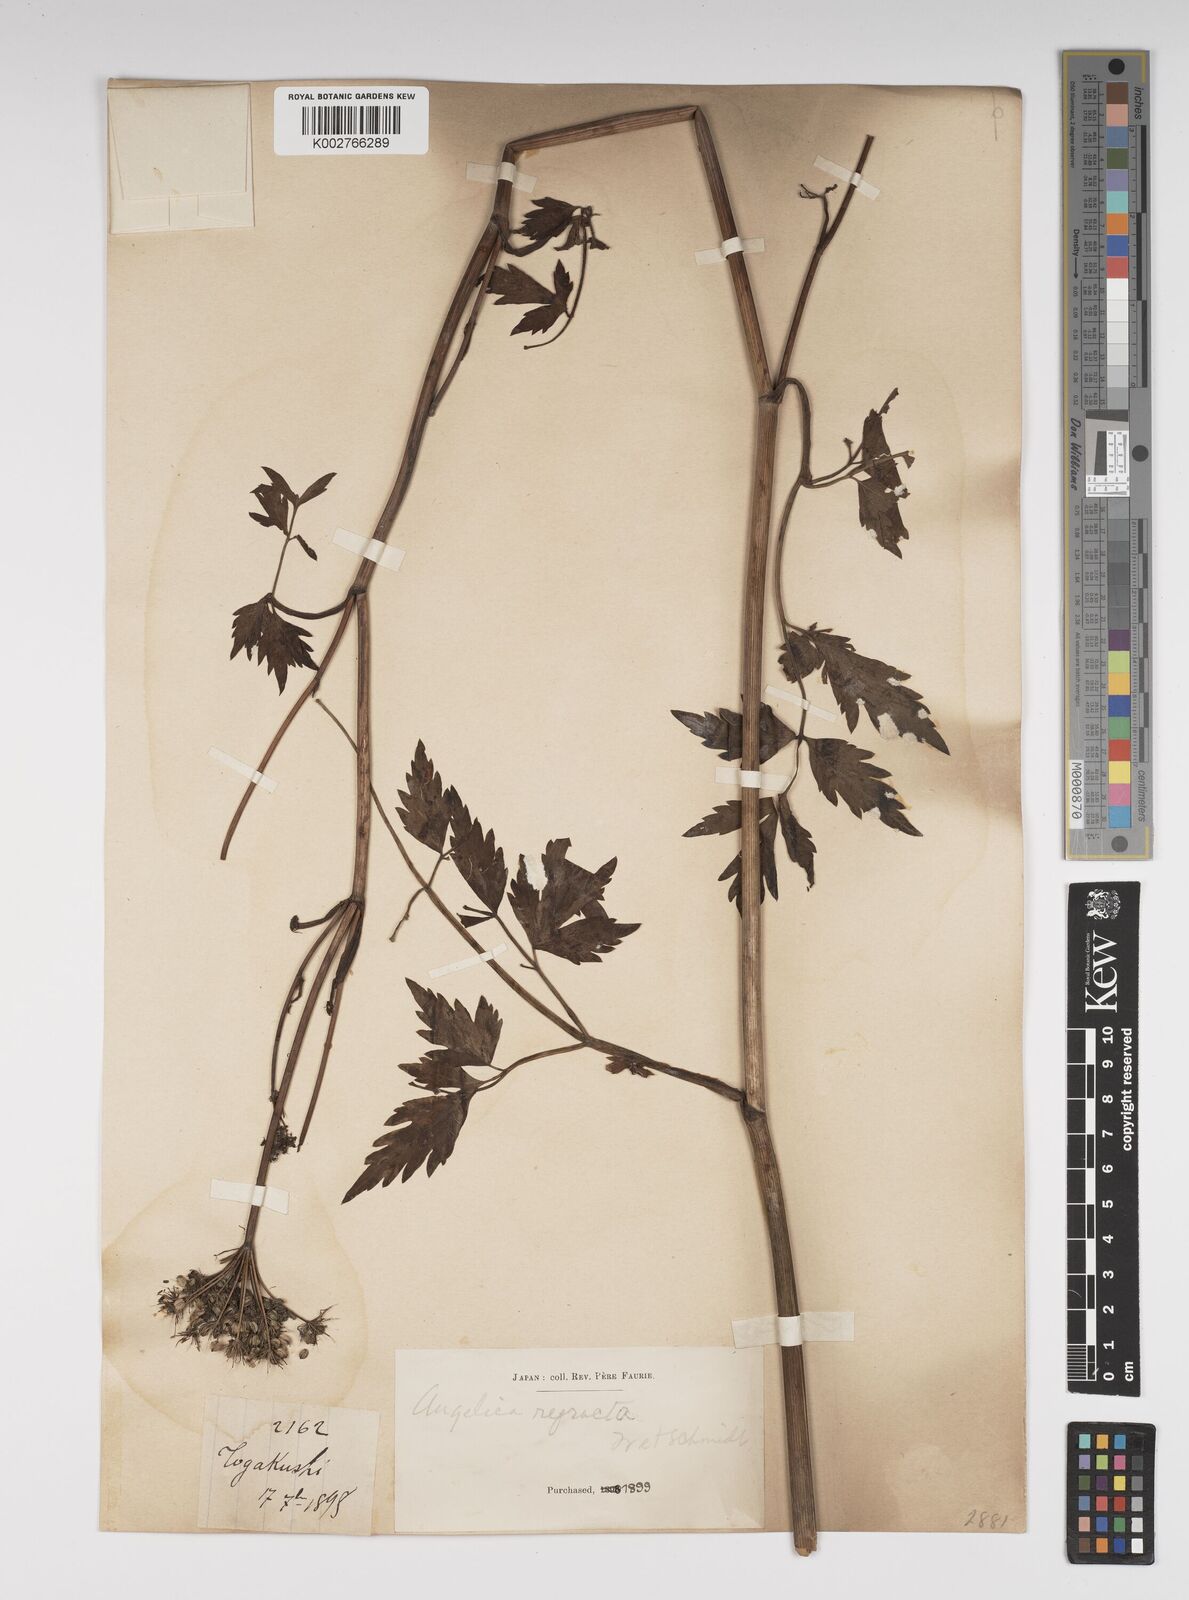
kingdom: Plantae
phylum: Tracheophyta
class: Magnoliopsida
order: Apiales
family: Apiaceae
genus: Angelica
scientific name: Angelica genuflexa
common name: Kneeling angelica
